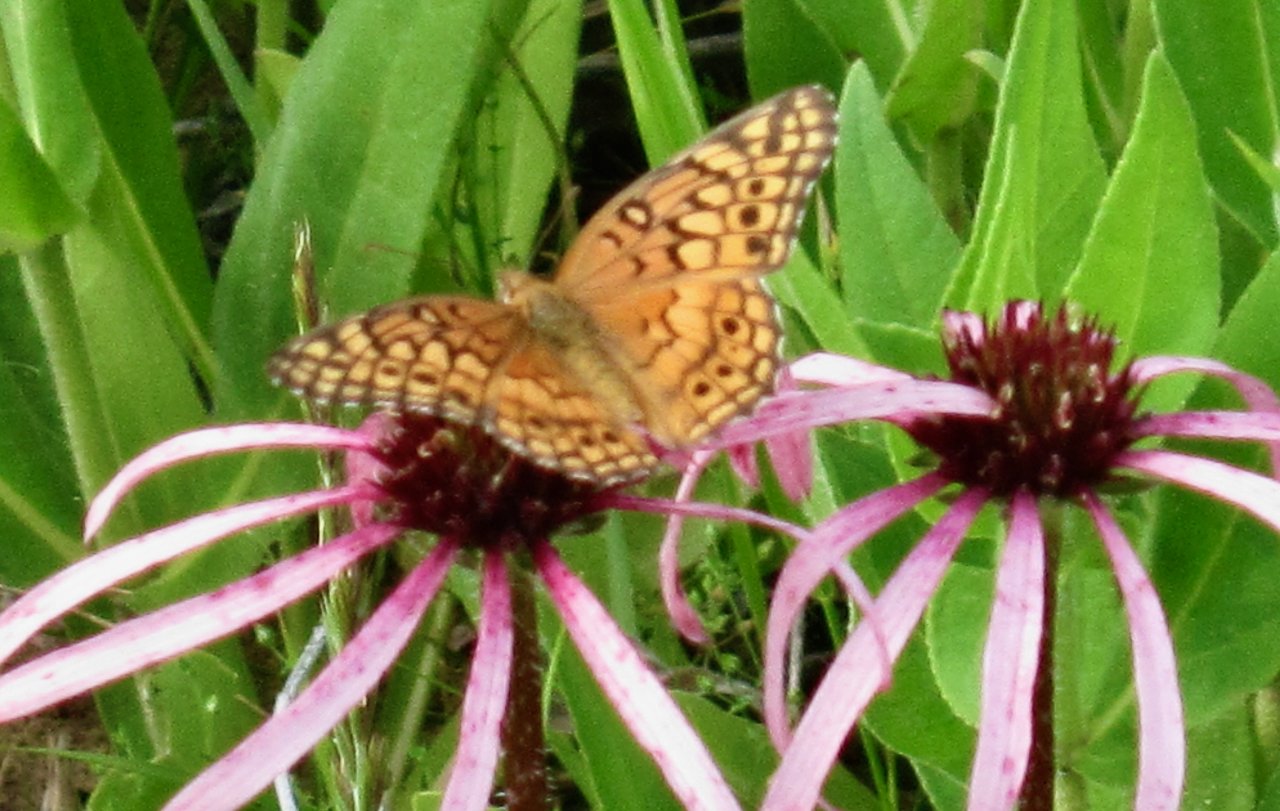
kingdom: Animalia
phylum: Arthropoda
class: Insecta
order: Lepidoptera
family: Nymphalidae
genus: Euptoieta
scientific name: Euptoieta claudia
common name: Variegated Fritillary
